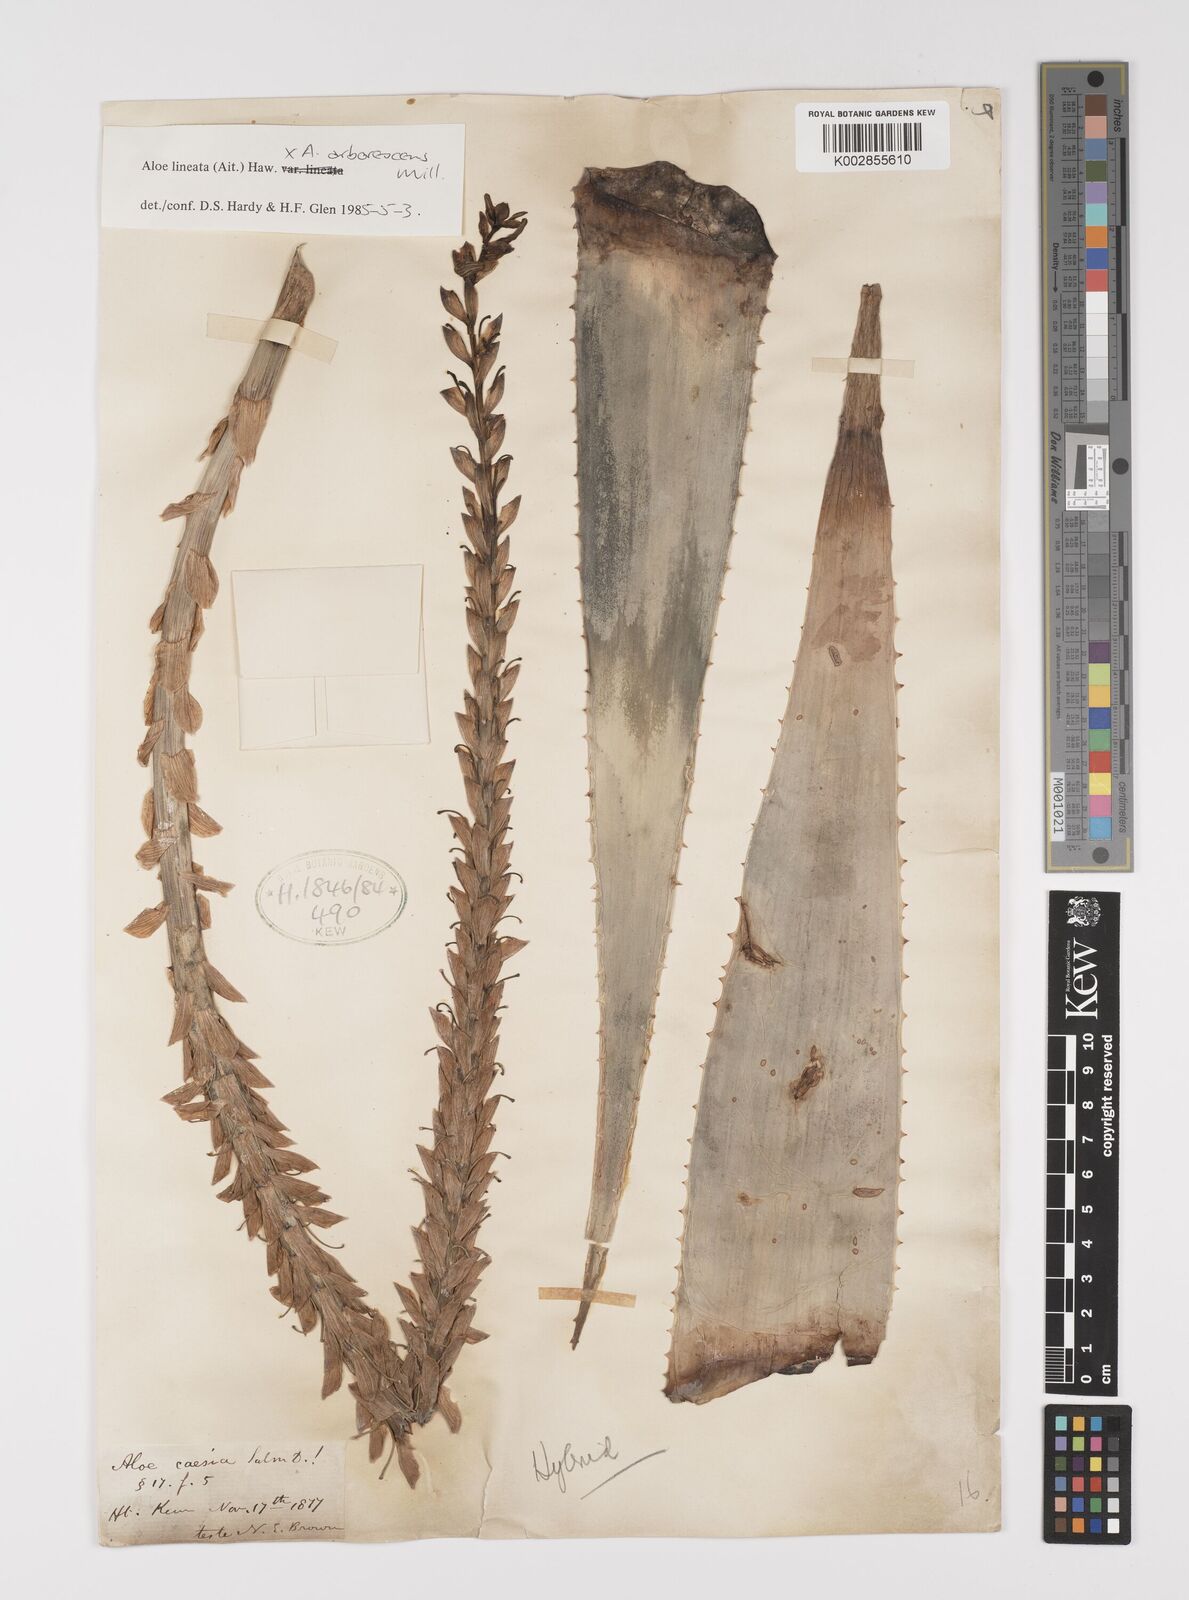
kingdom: Plantae
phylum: Tracheophyta
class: Liliopsida
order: Asparagales
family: Asphodelaceae
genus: Aloe
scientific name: Aloe lineata
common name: Lined red-spined aloe
